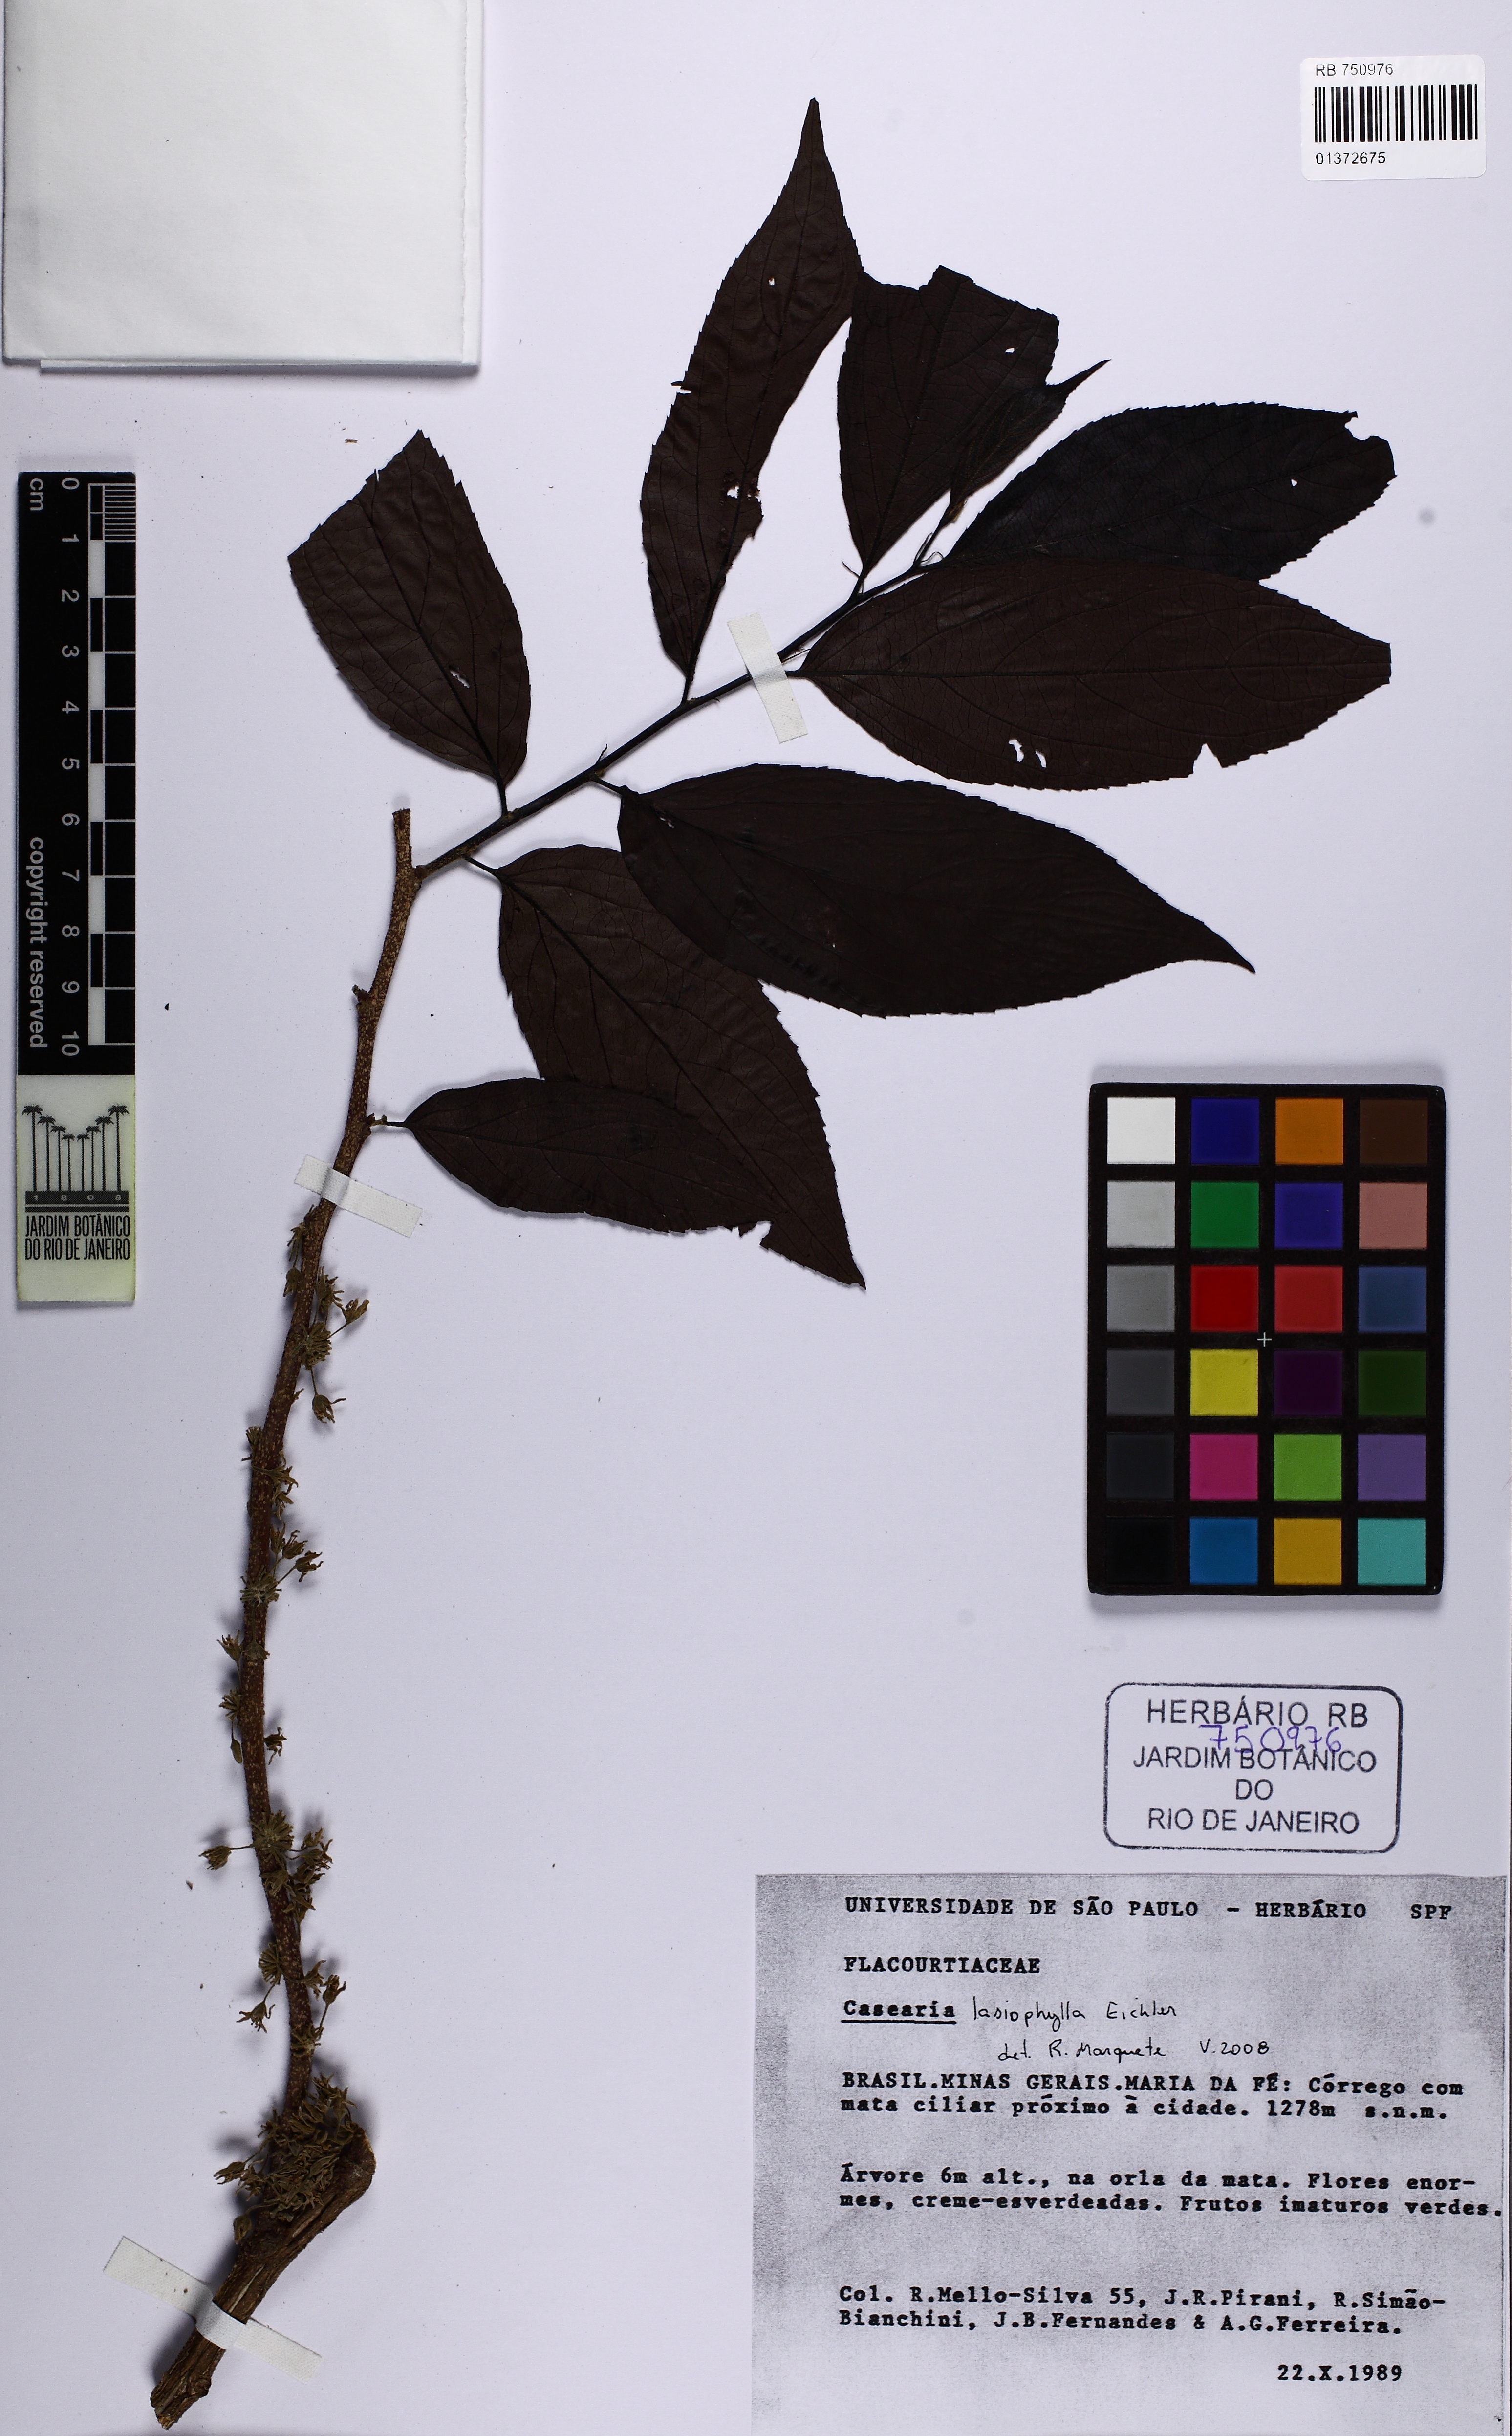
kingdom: Plantae
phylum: Tracheophyta
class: Magnoliopsida
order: Malpighiales
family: Salicaceae
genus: Casearia
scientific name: Casearia lasiophylla
